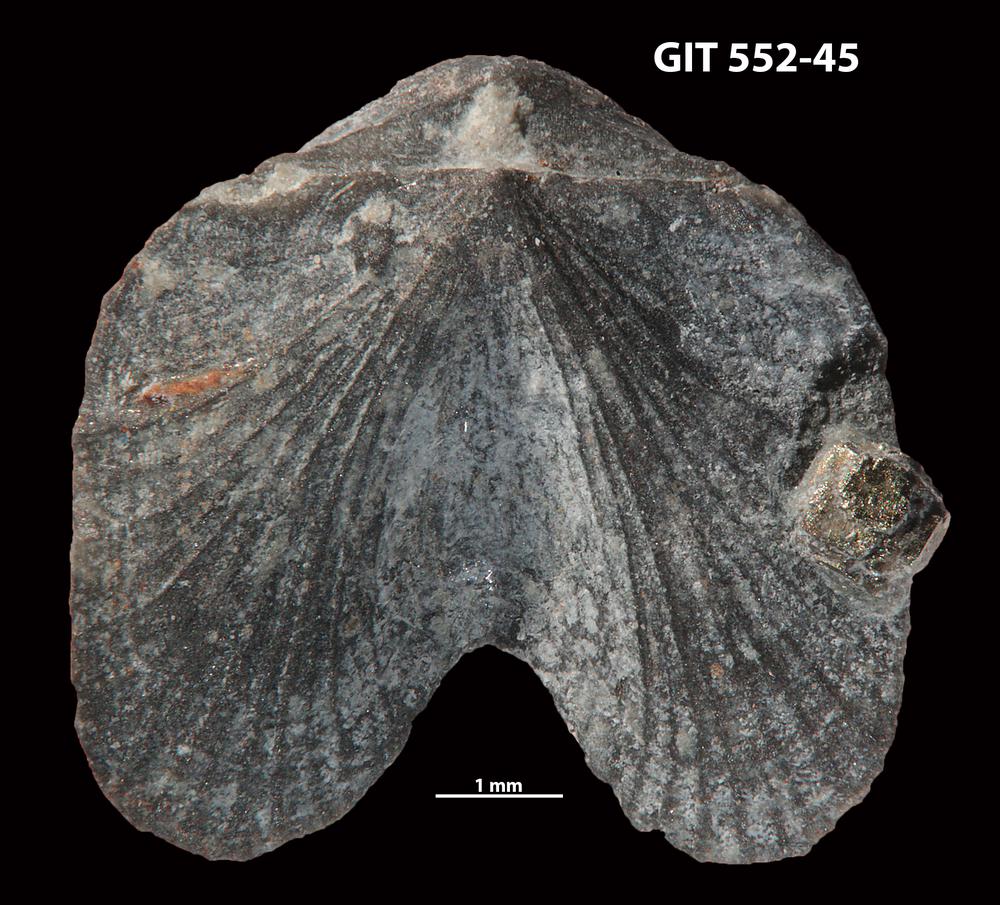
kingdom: Animalia
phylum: Brachiopoda
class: Rhynchonellata
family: Dicoelosiidae
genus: Dicoelosia
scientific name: Dicoelosia paralata
